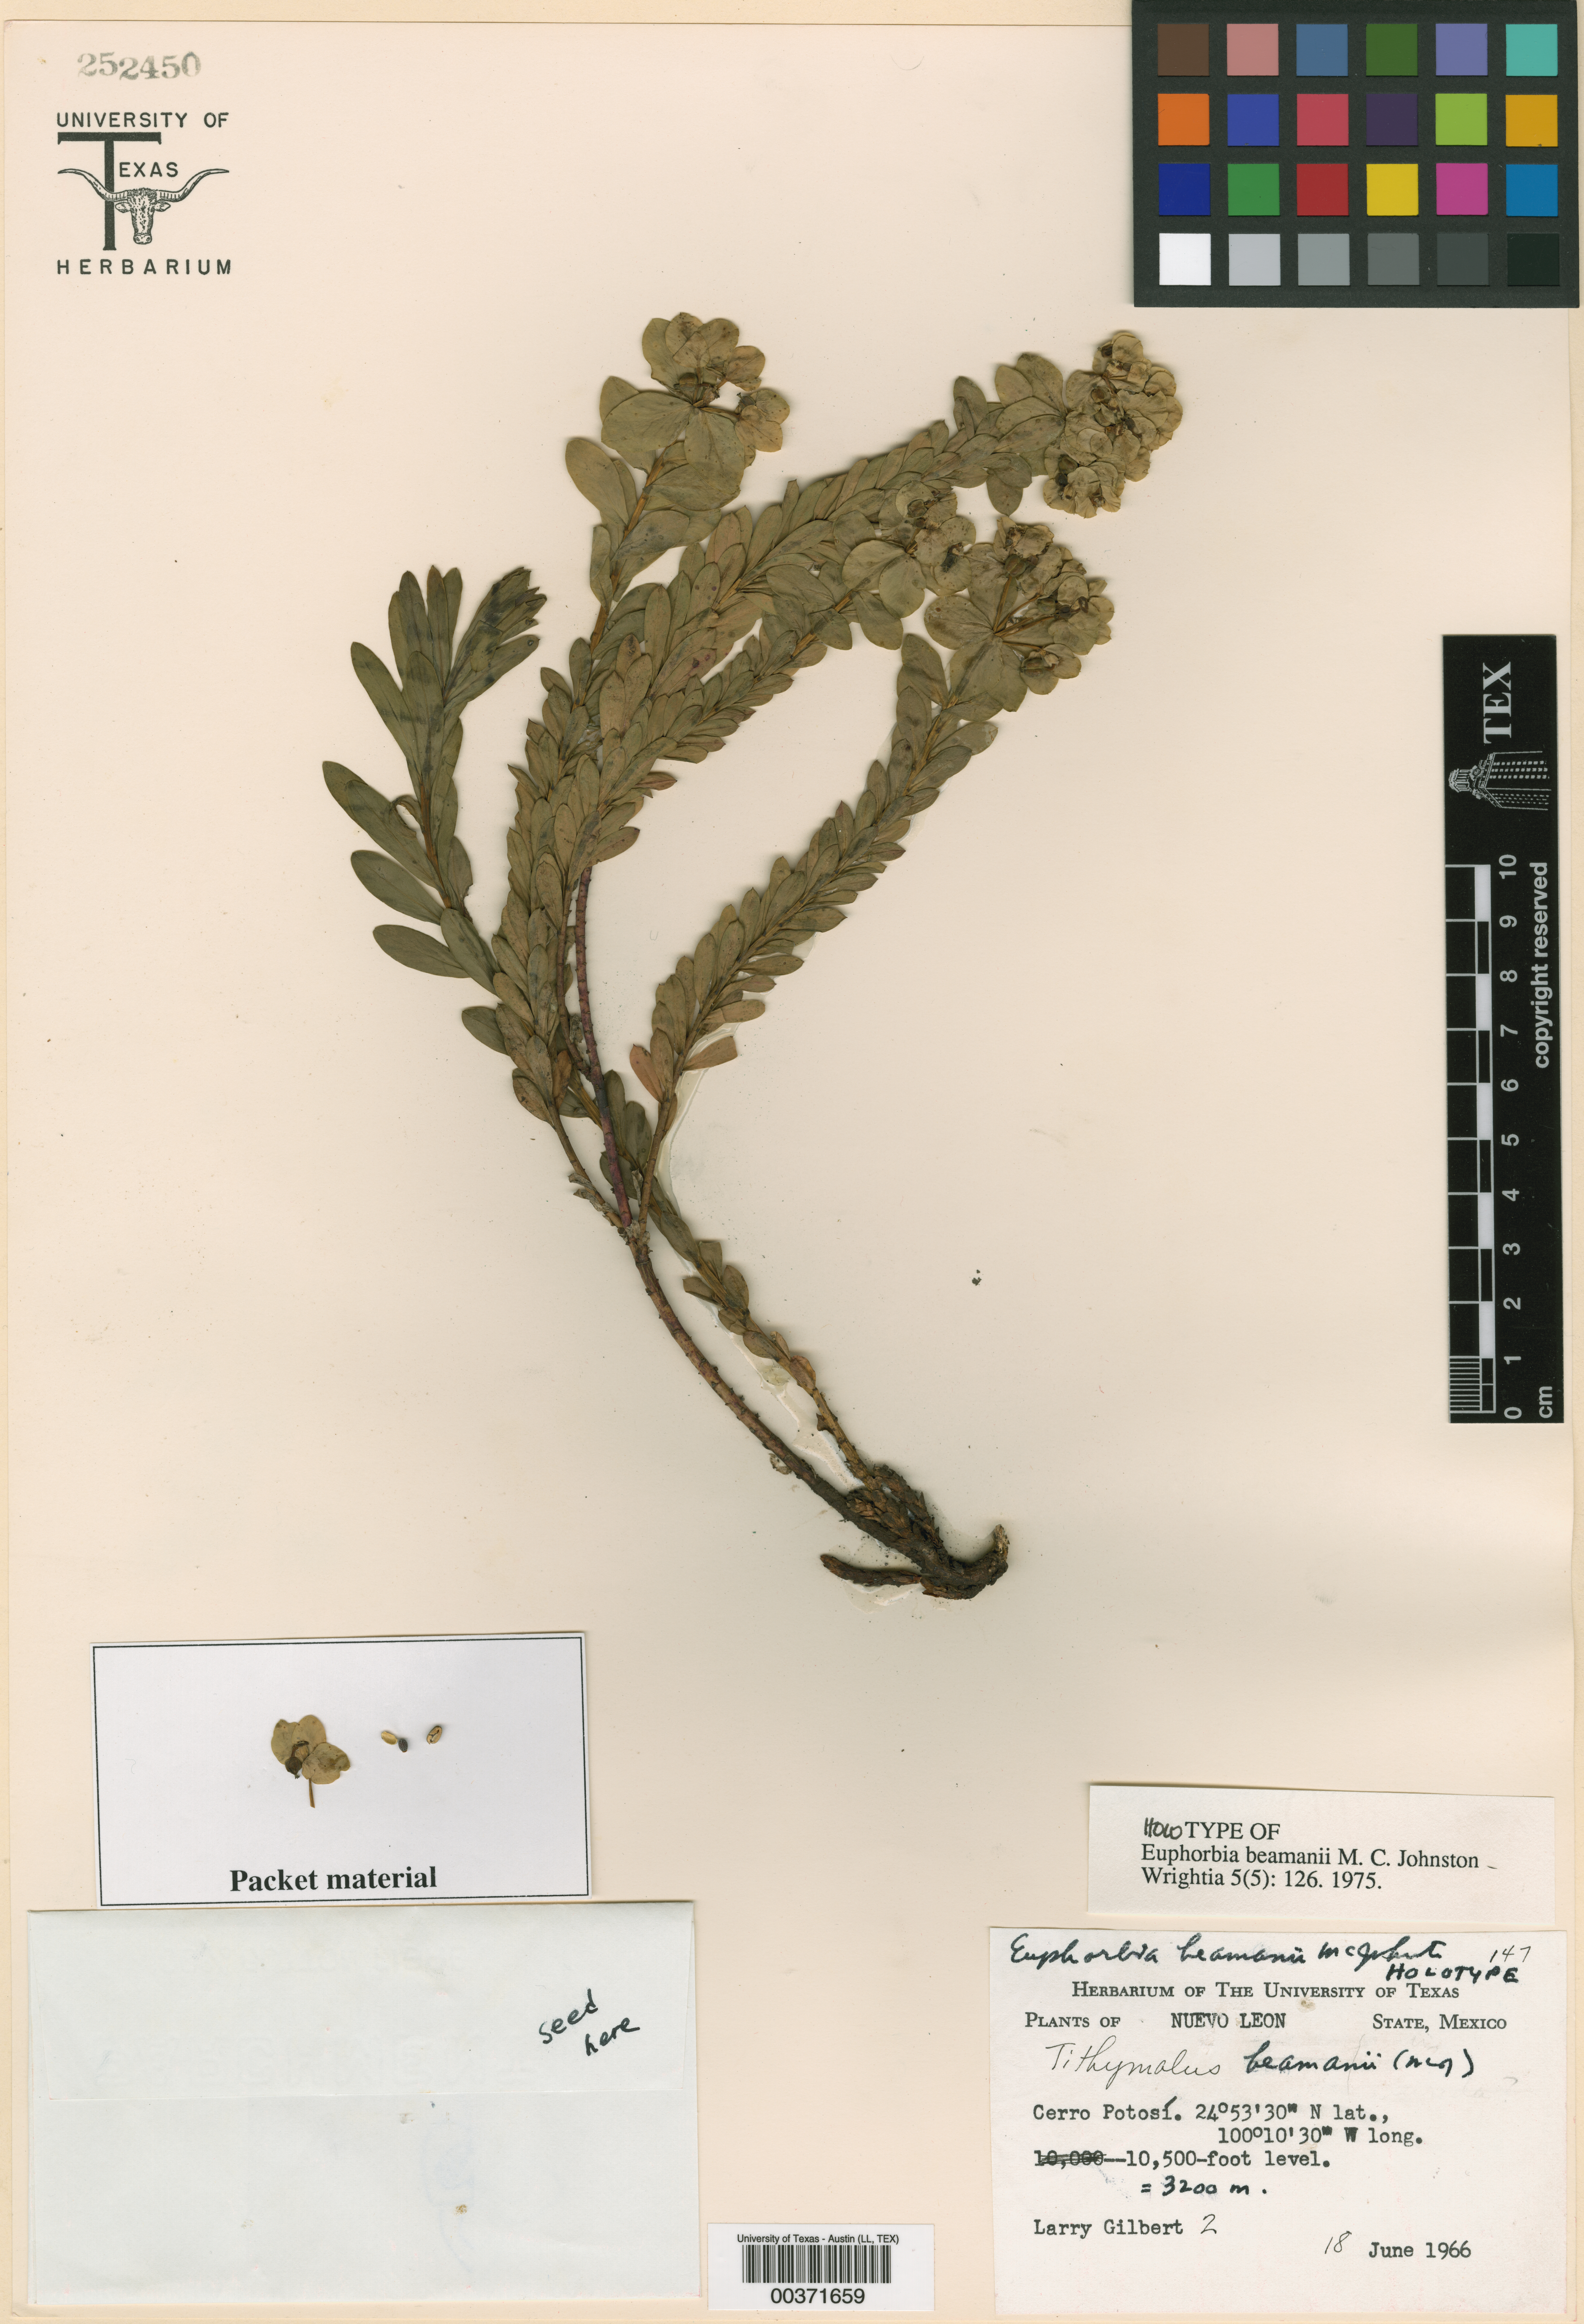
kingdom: Plantae
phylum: Tracheophyta
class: Magnoliopsida
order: Malpighiales
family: Euphorbiaceae
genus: Euphorbia
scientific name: Euphorbia beamanii
